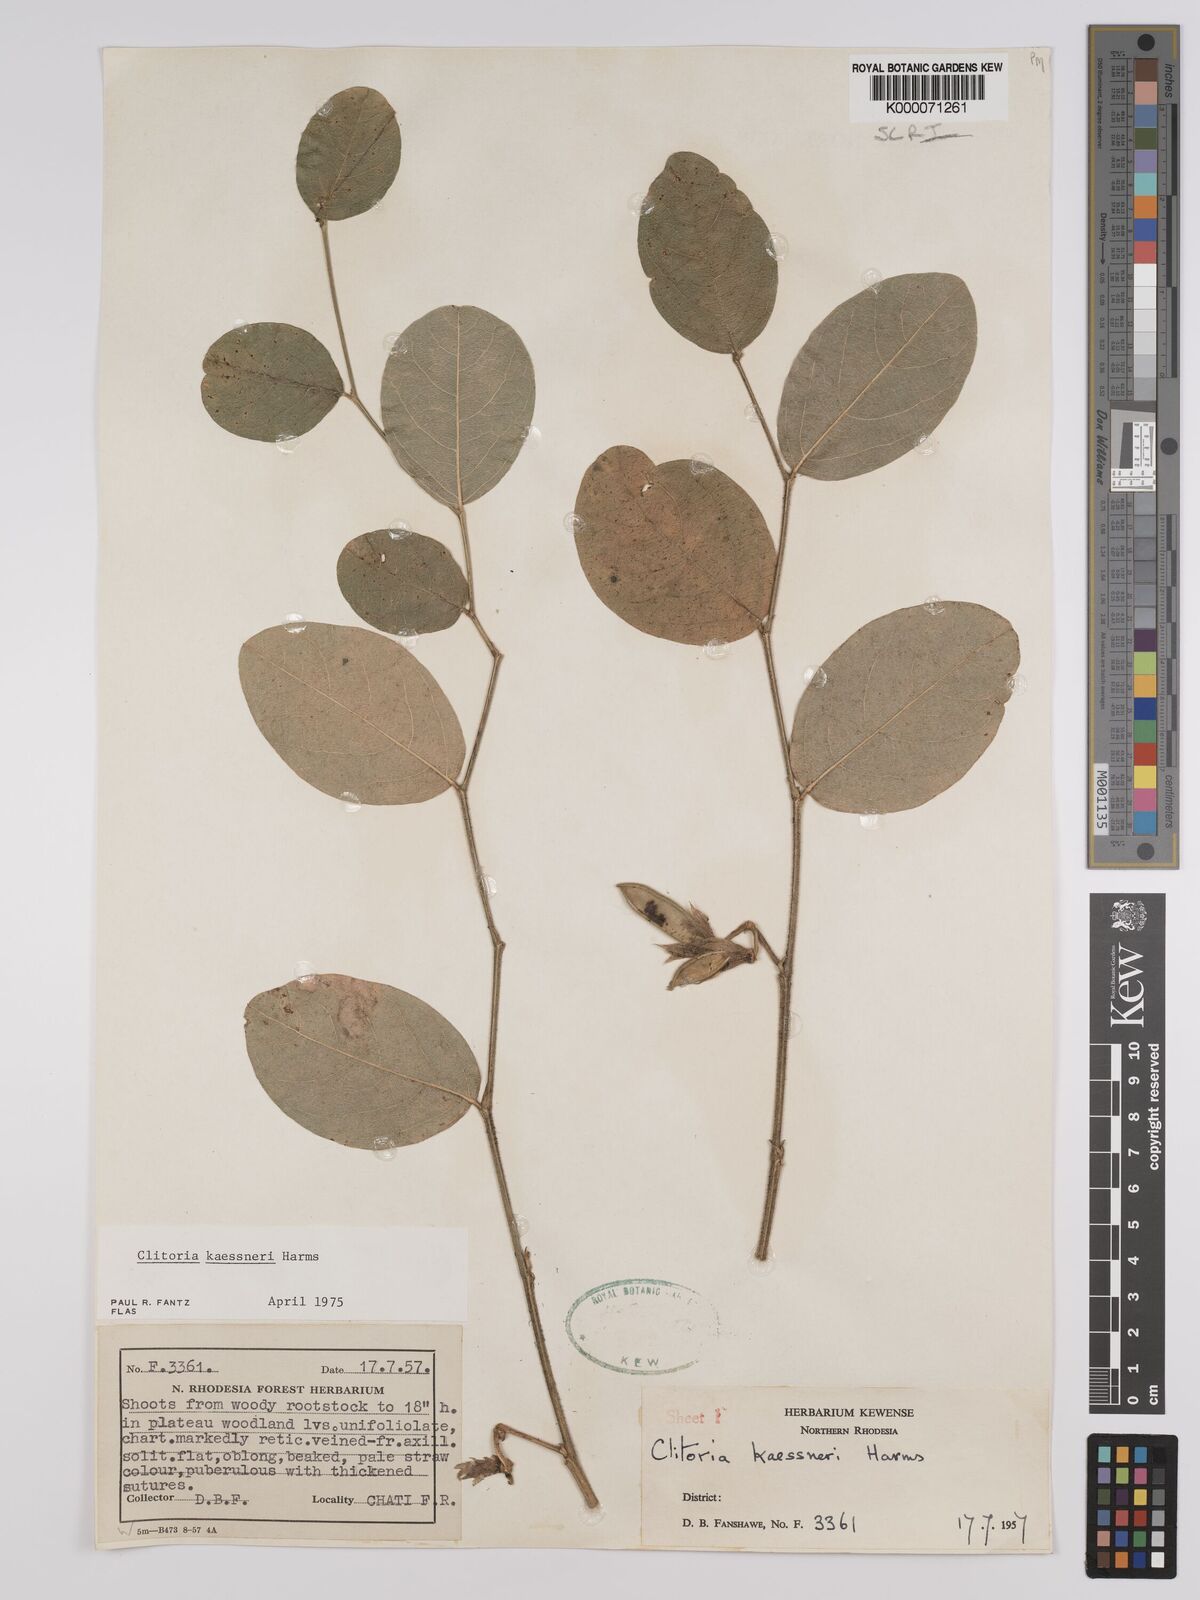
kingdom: Plantae
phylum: Tracheophyta
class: Magnoliopsida
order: Fabales
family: Fabaceae
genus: Clitoria
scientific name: Clitoria kaessneri
